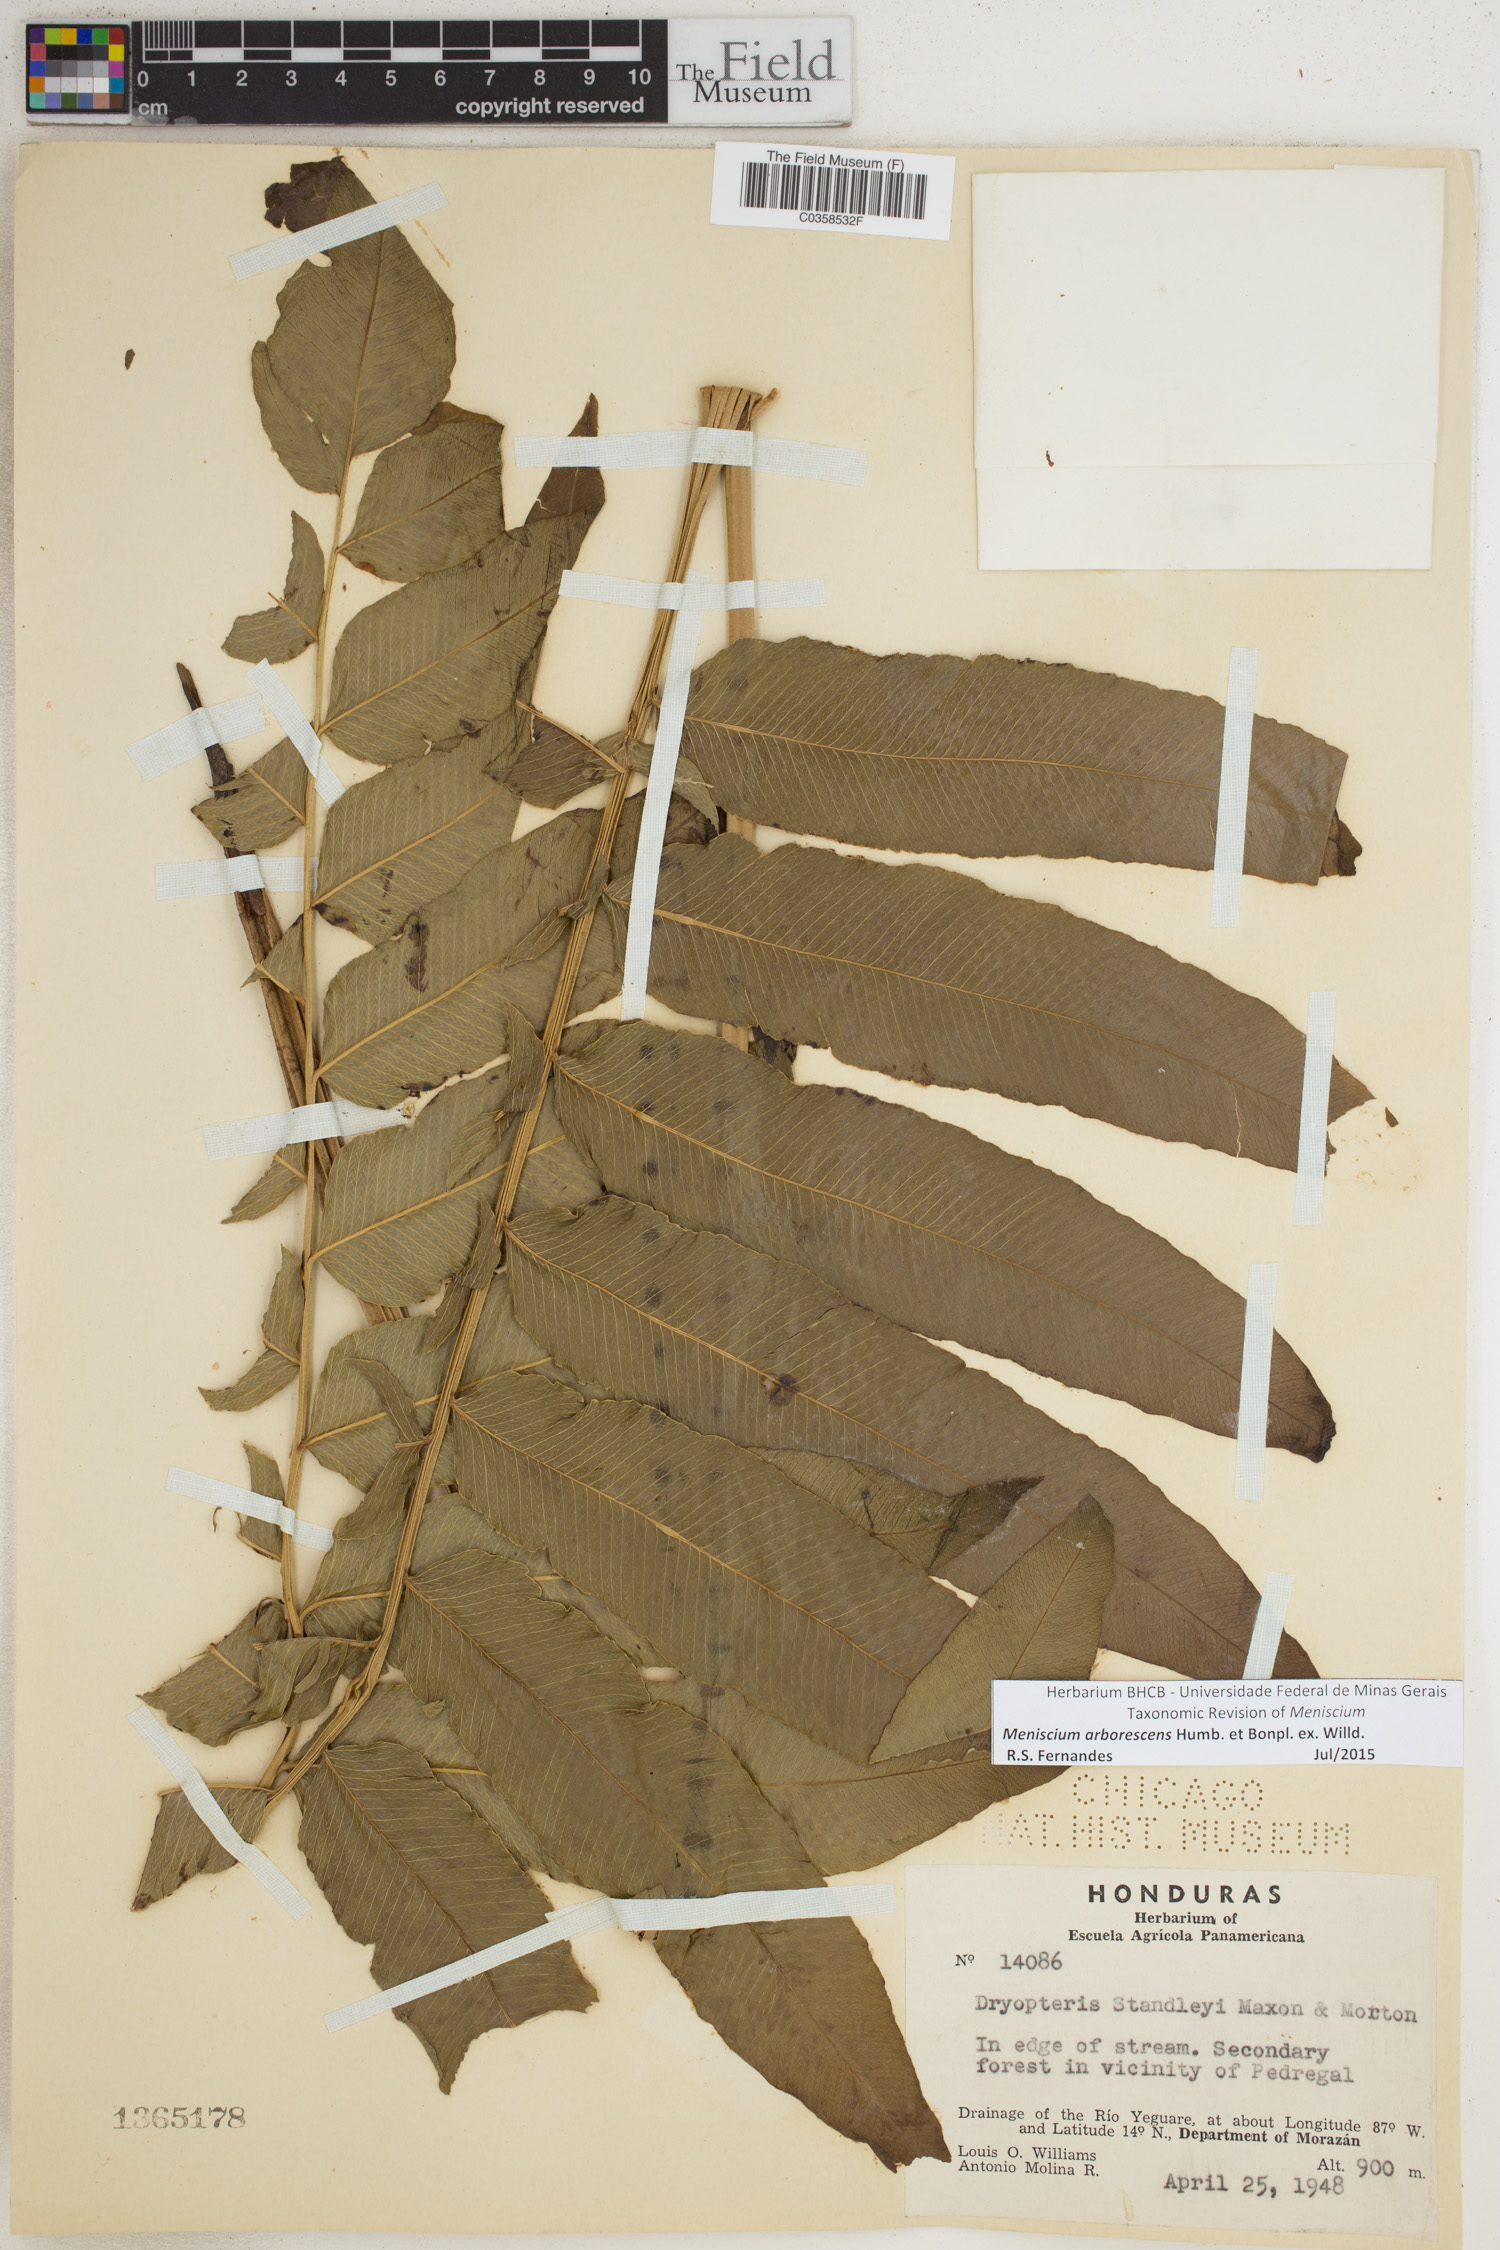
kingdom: Plantae
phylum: Tracheophyta
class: Polypodiopsida
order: Polypodiales
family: Thelypteridaceae
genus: Meniscium
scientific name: Meniscium arborescens
